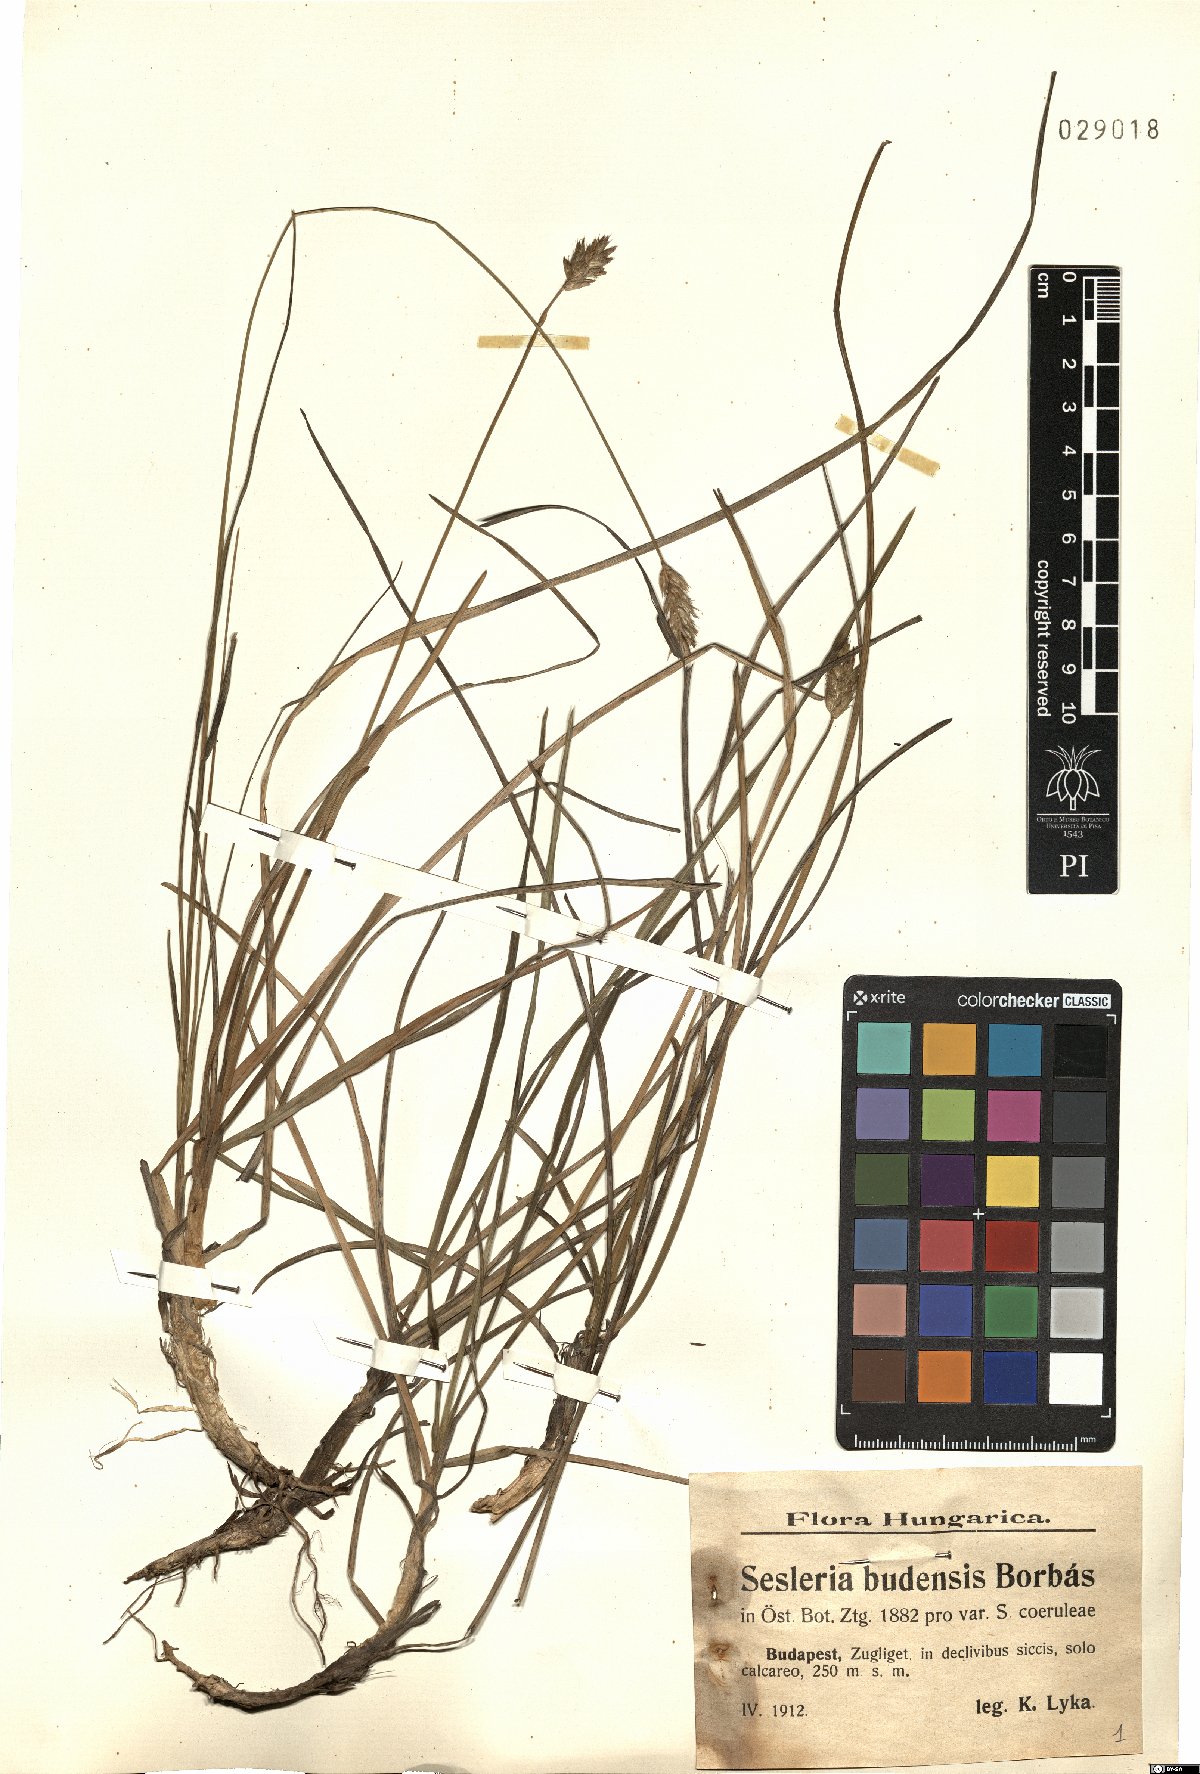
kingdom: Plantae
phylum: Tracheophyta
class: Liliopsida
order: Poales
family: Poaceae
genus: Sesleria
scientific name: Sesleria sadleriana
